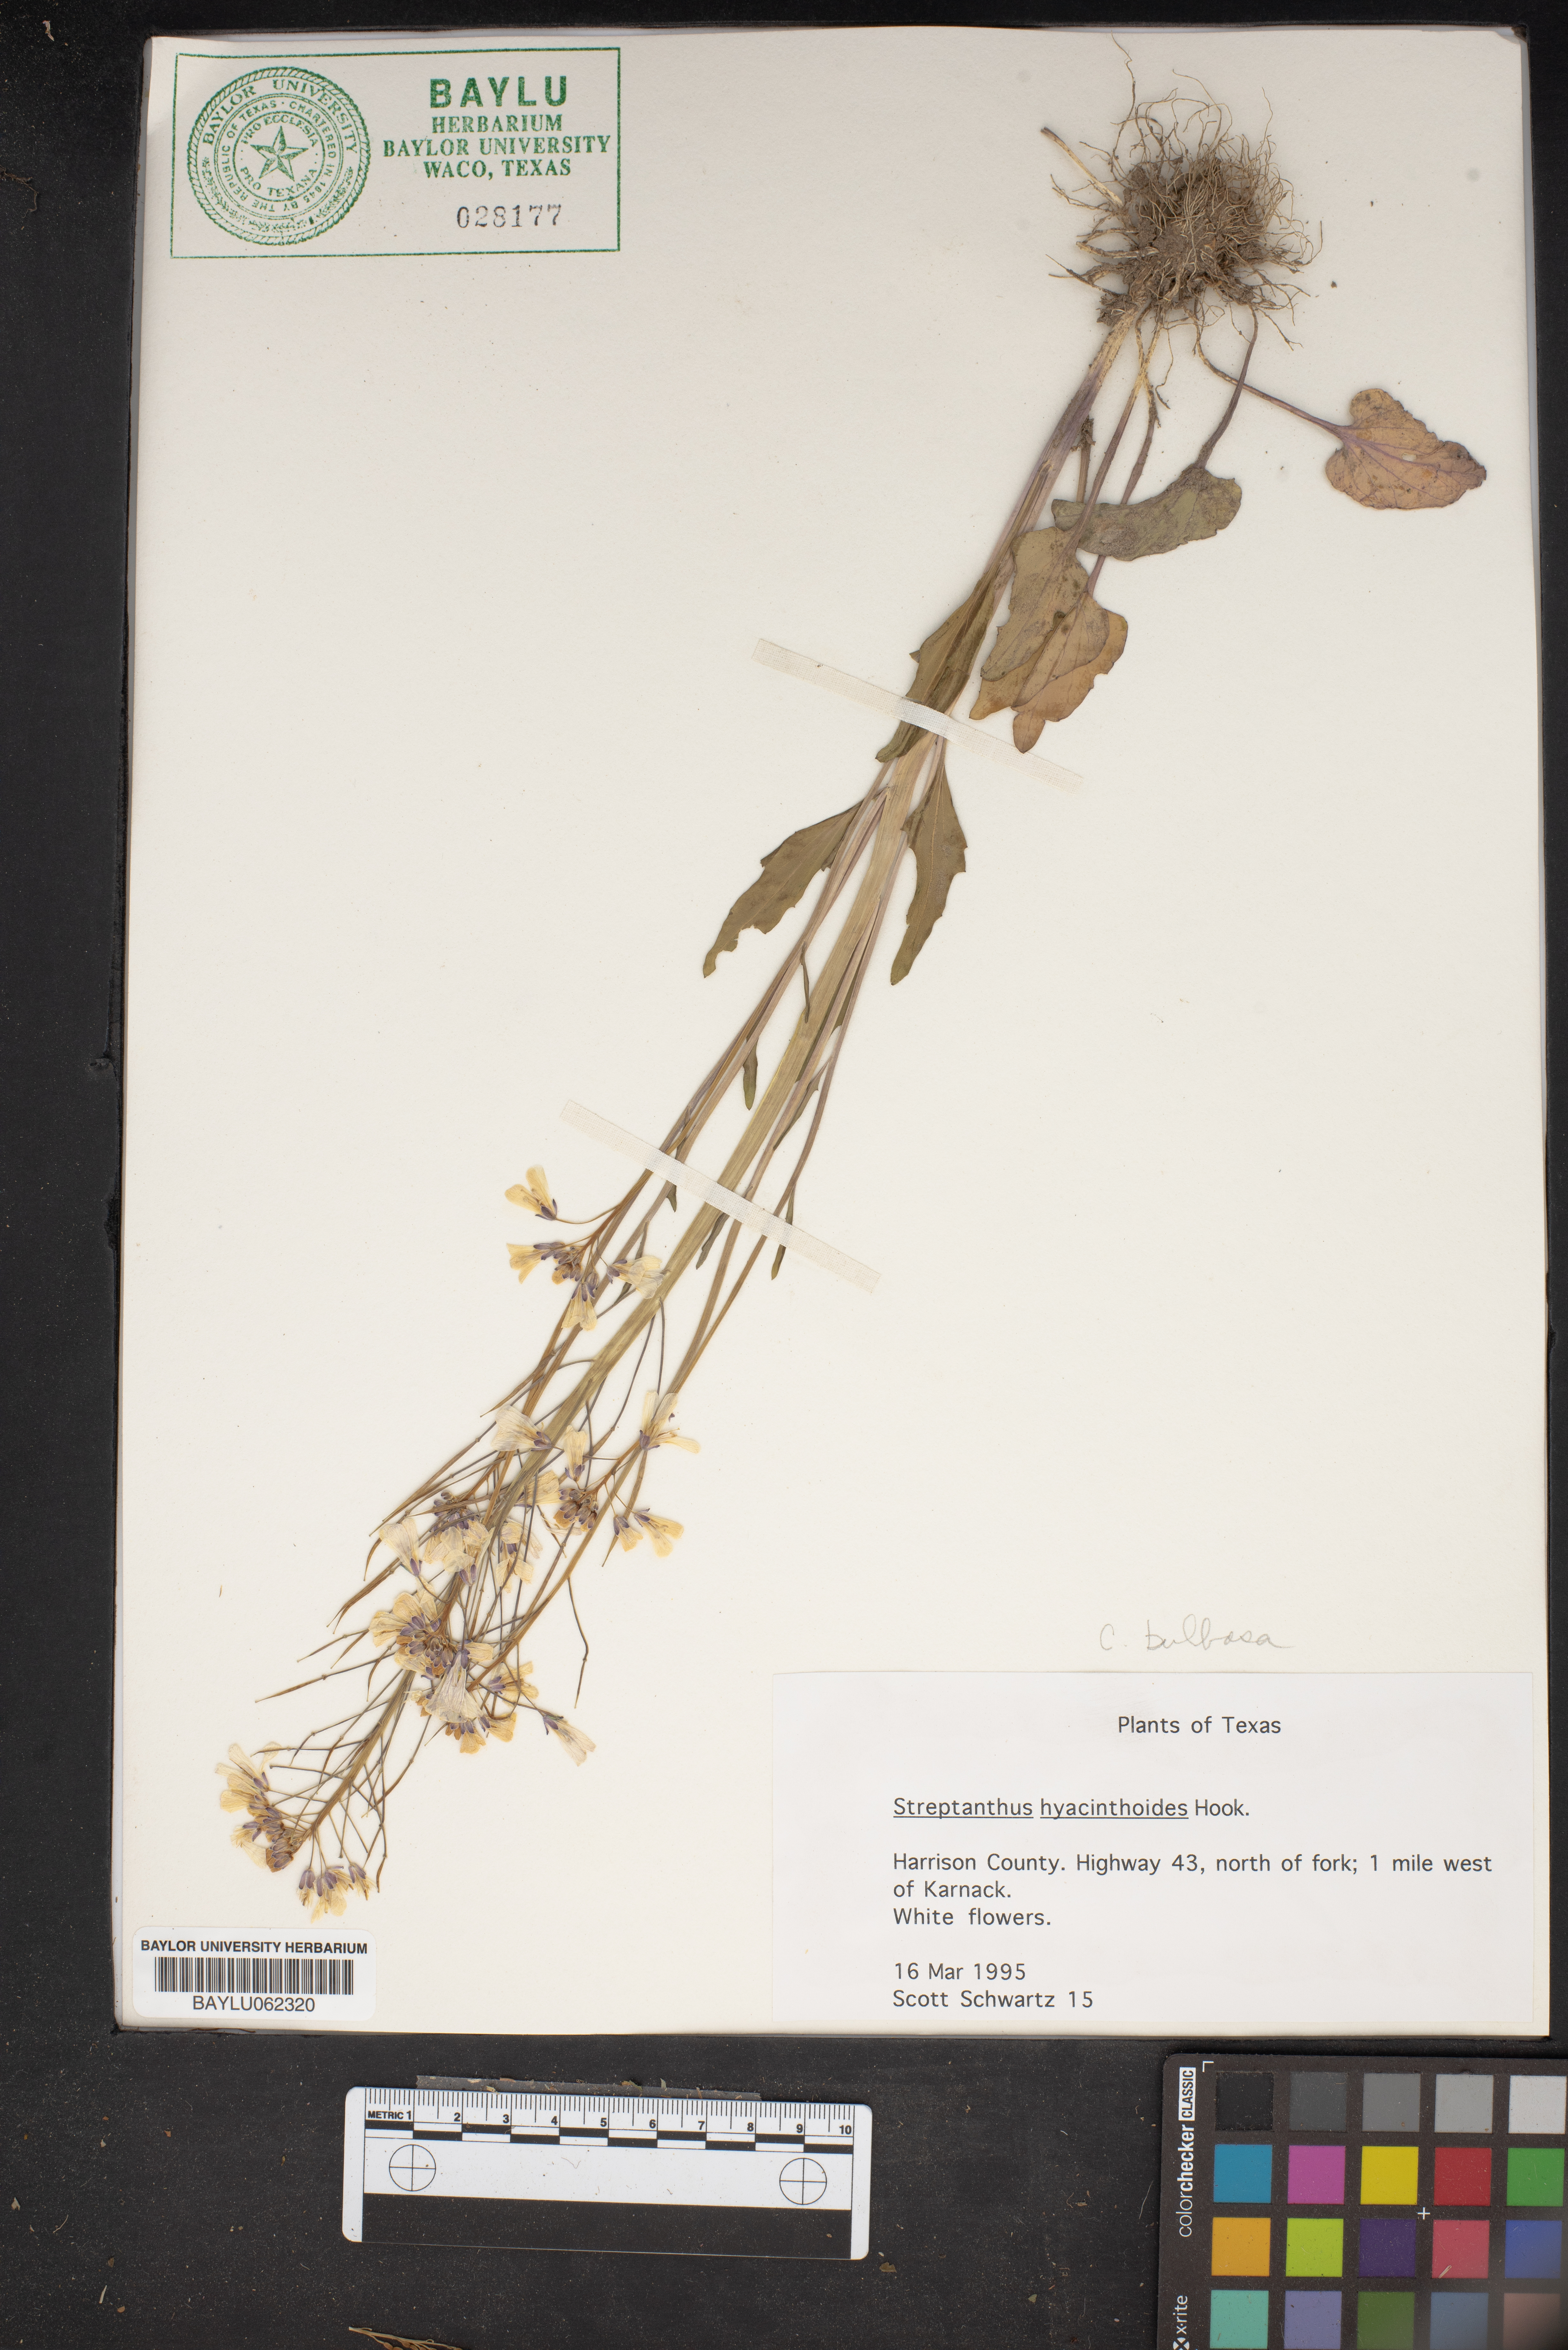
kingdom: Plantae
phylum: Tracheophyta
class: Magnoliopsida
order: Brassicales
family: Brassicaceae
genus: Streptanthus
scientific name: Streptanthus hyacinthoides
